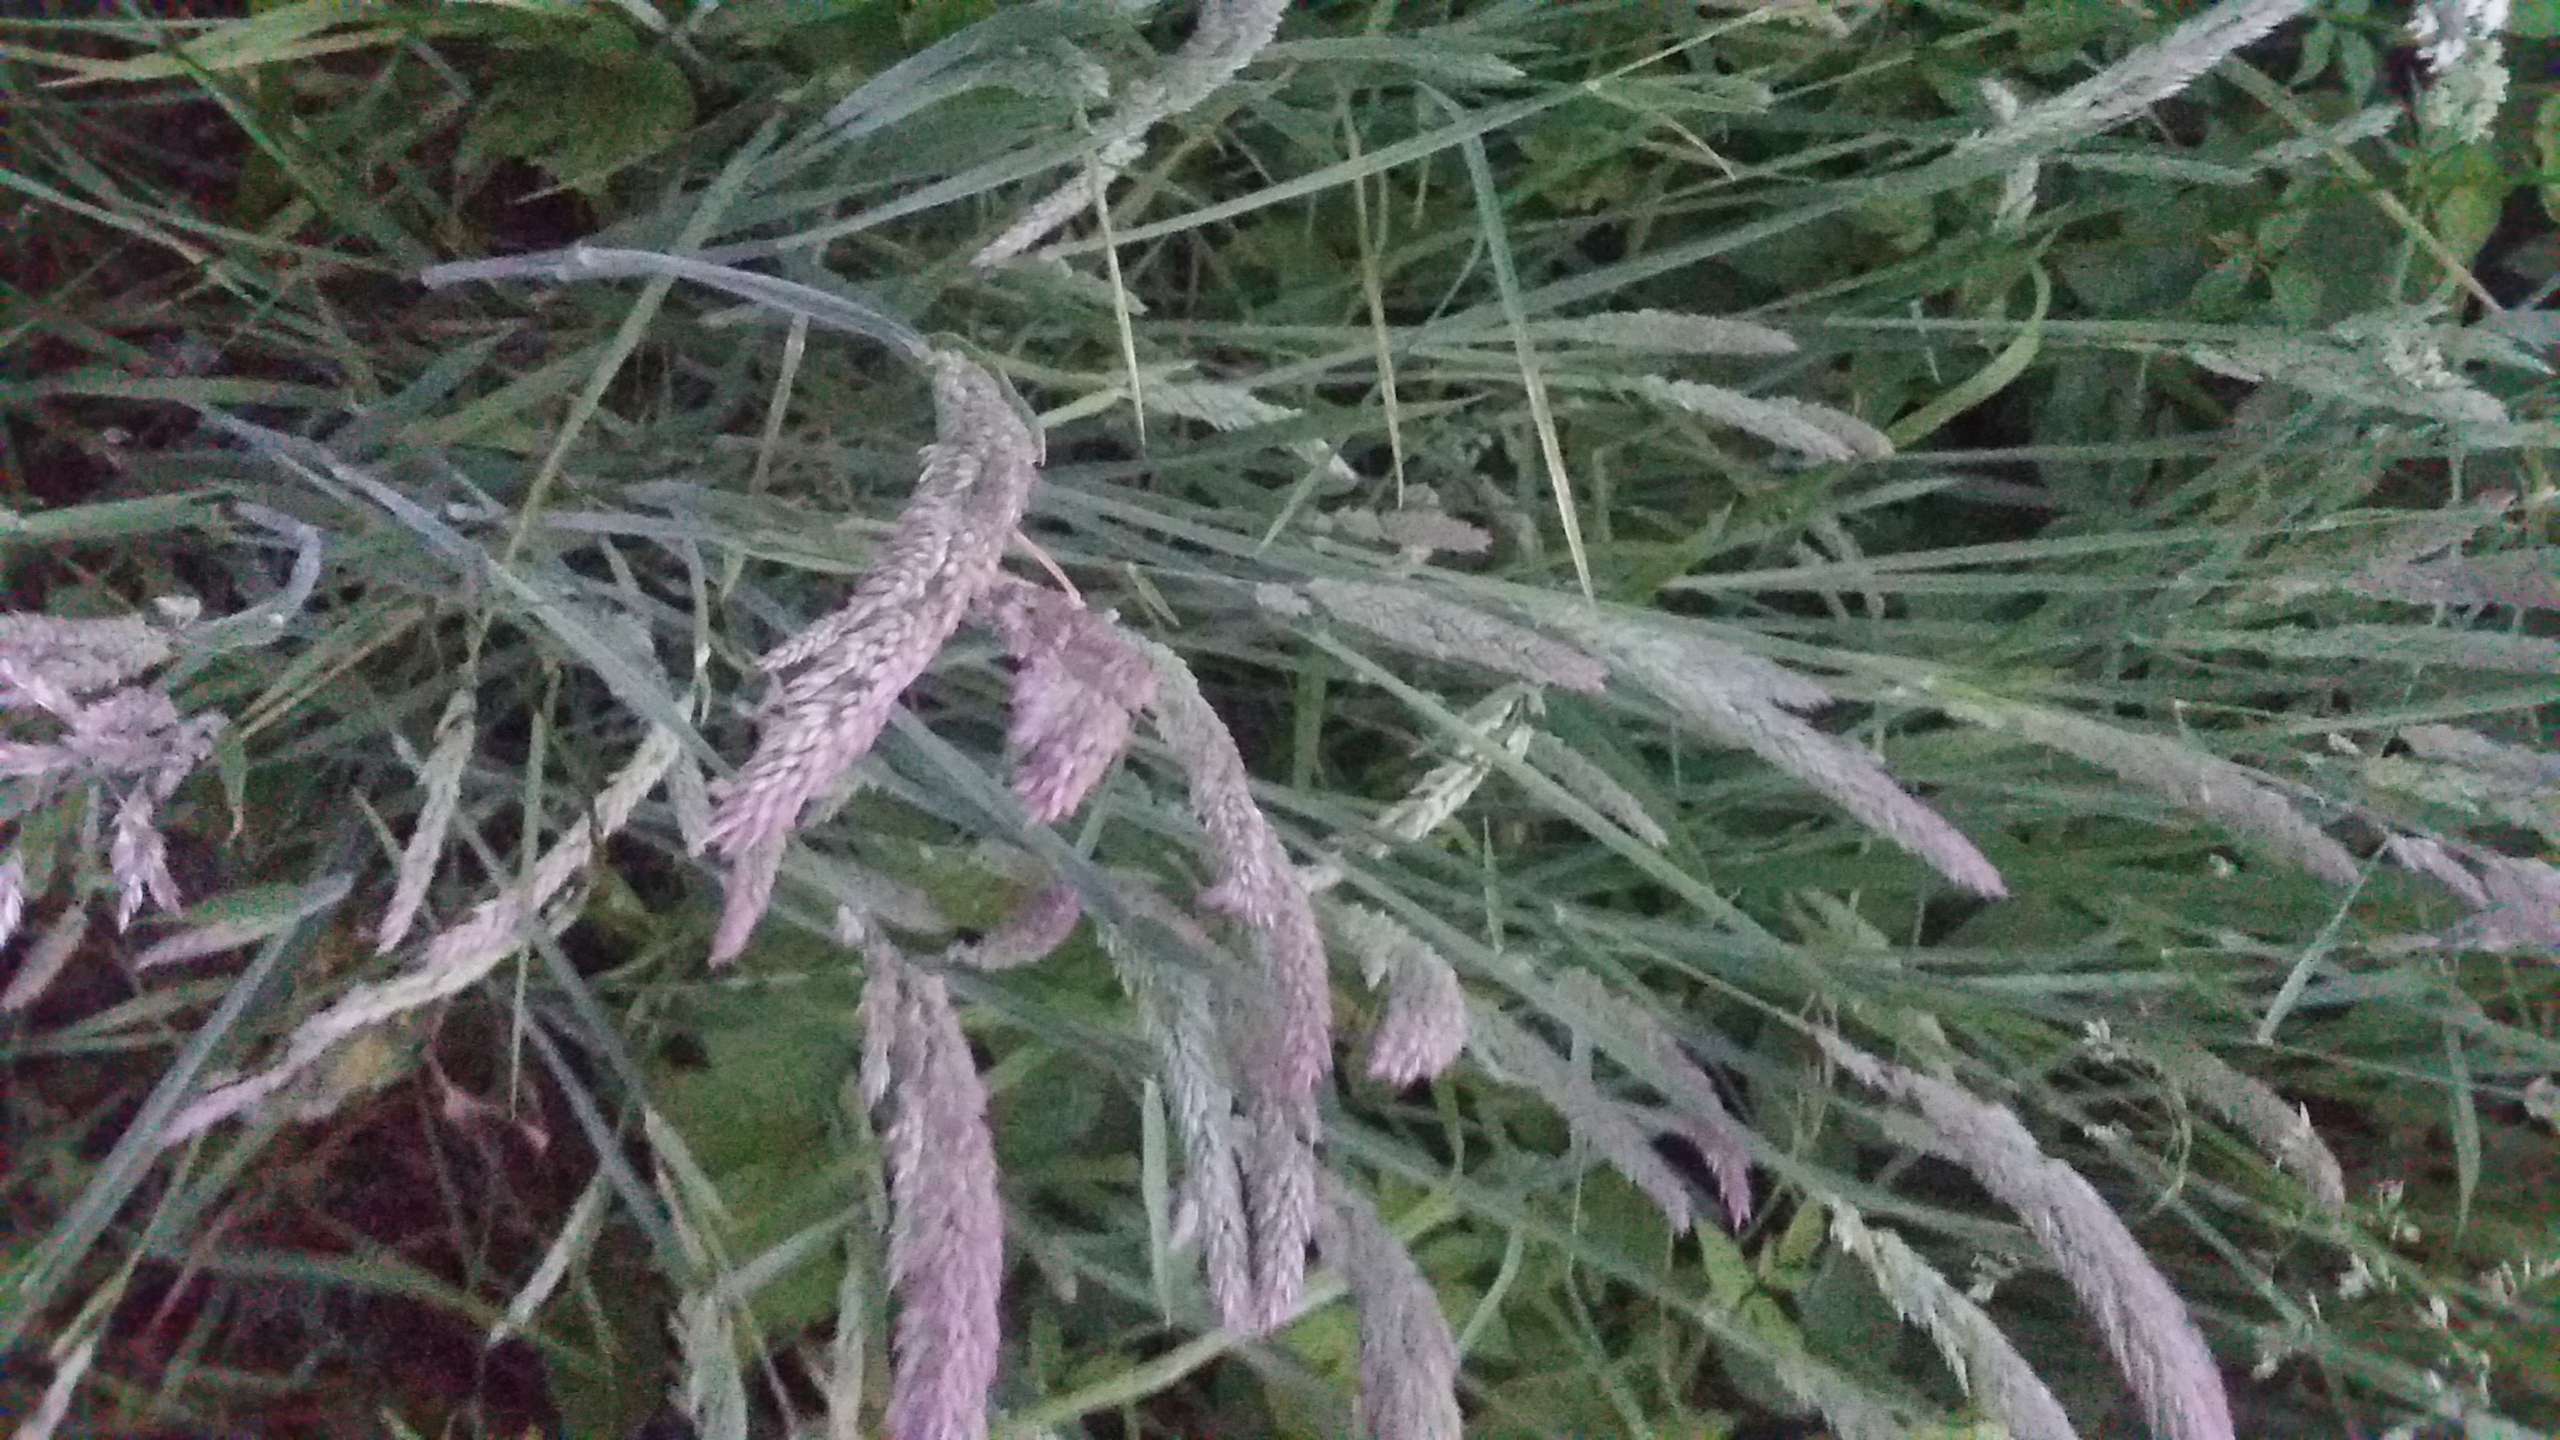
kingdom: Plantae
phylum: Tracheophyta
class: Liliopsida
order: Poales
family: Poaceae
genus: Holcus
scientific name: Holcus lanatus
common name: Fløjlsgræs
